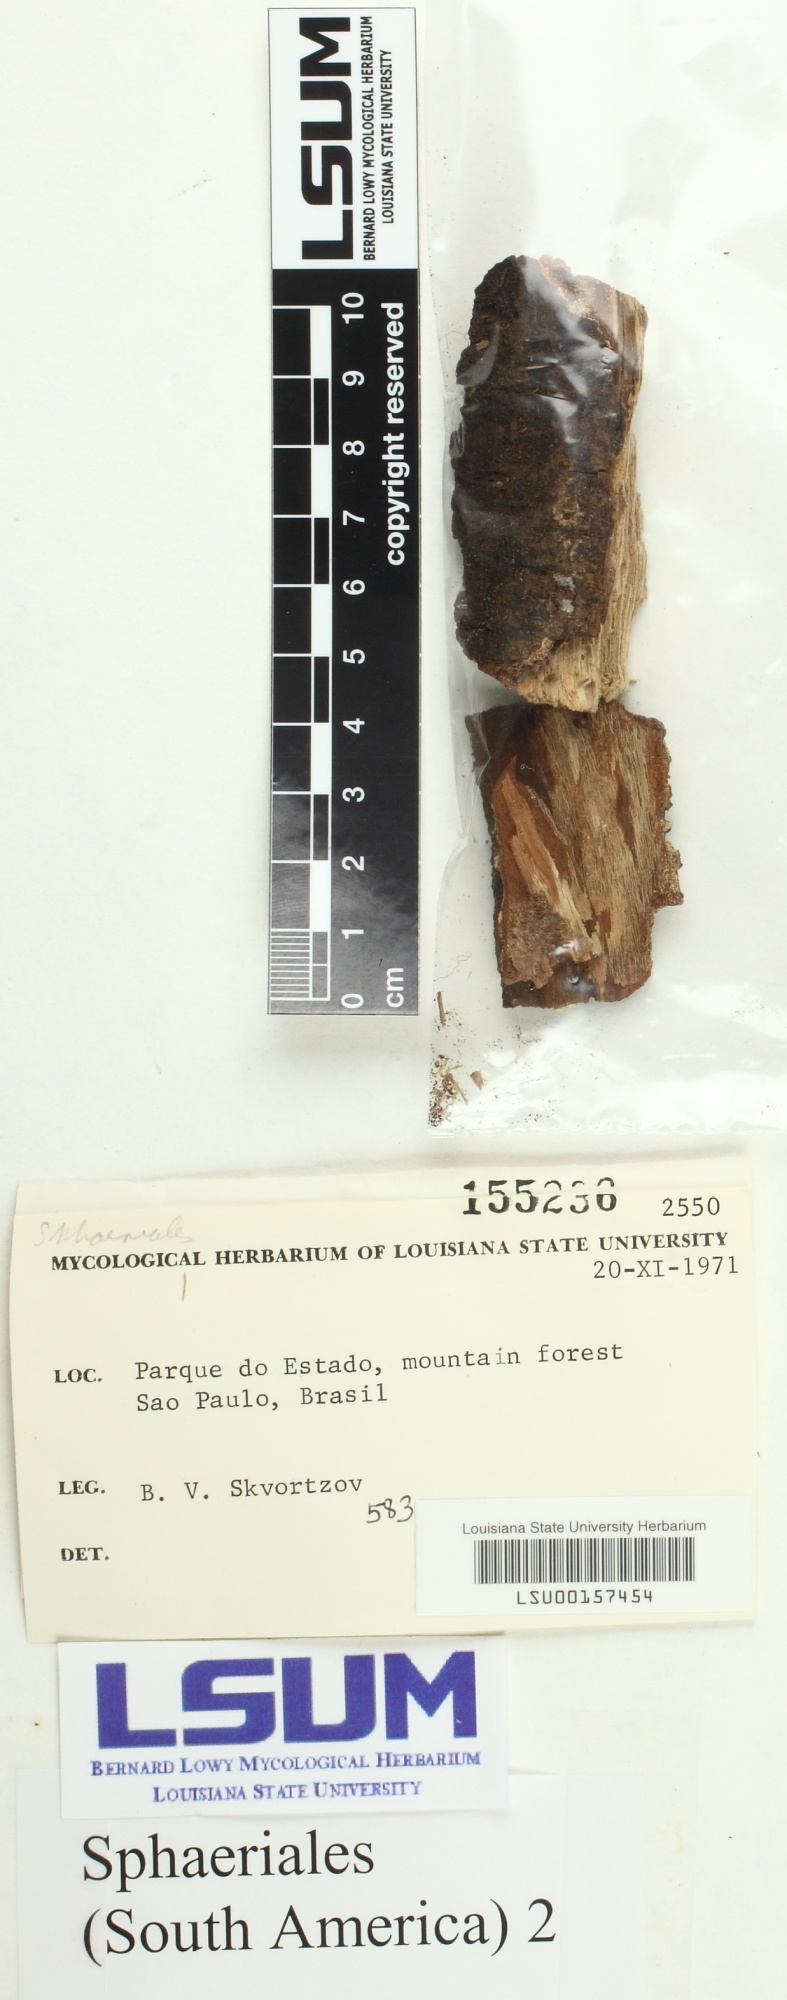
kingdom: Fungi
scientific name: Fungi
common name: Fungi
